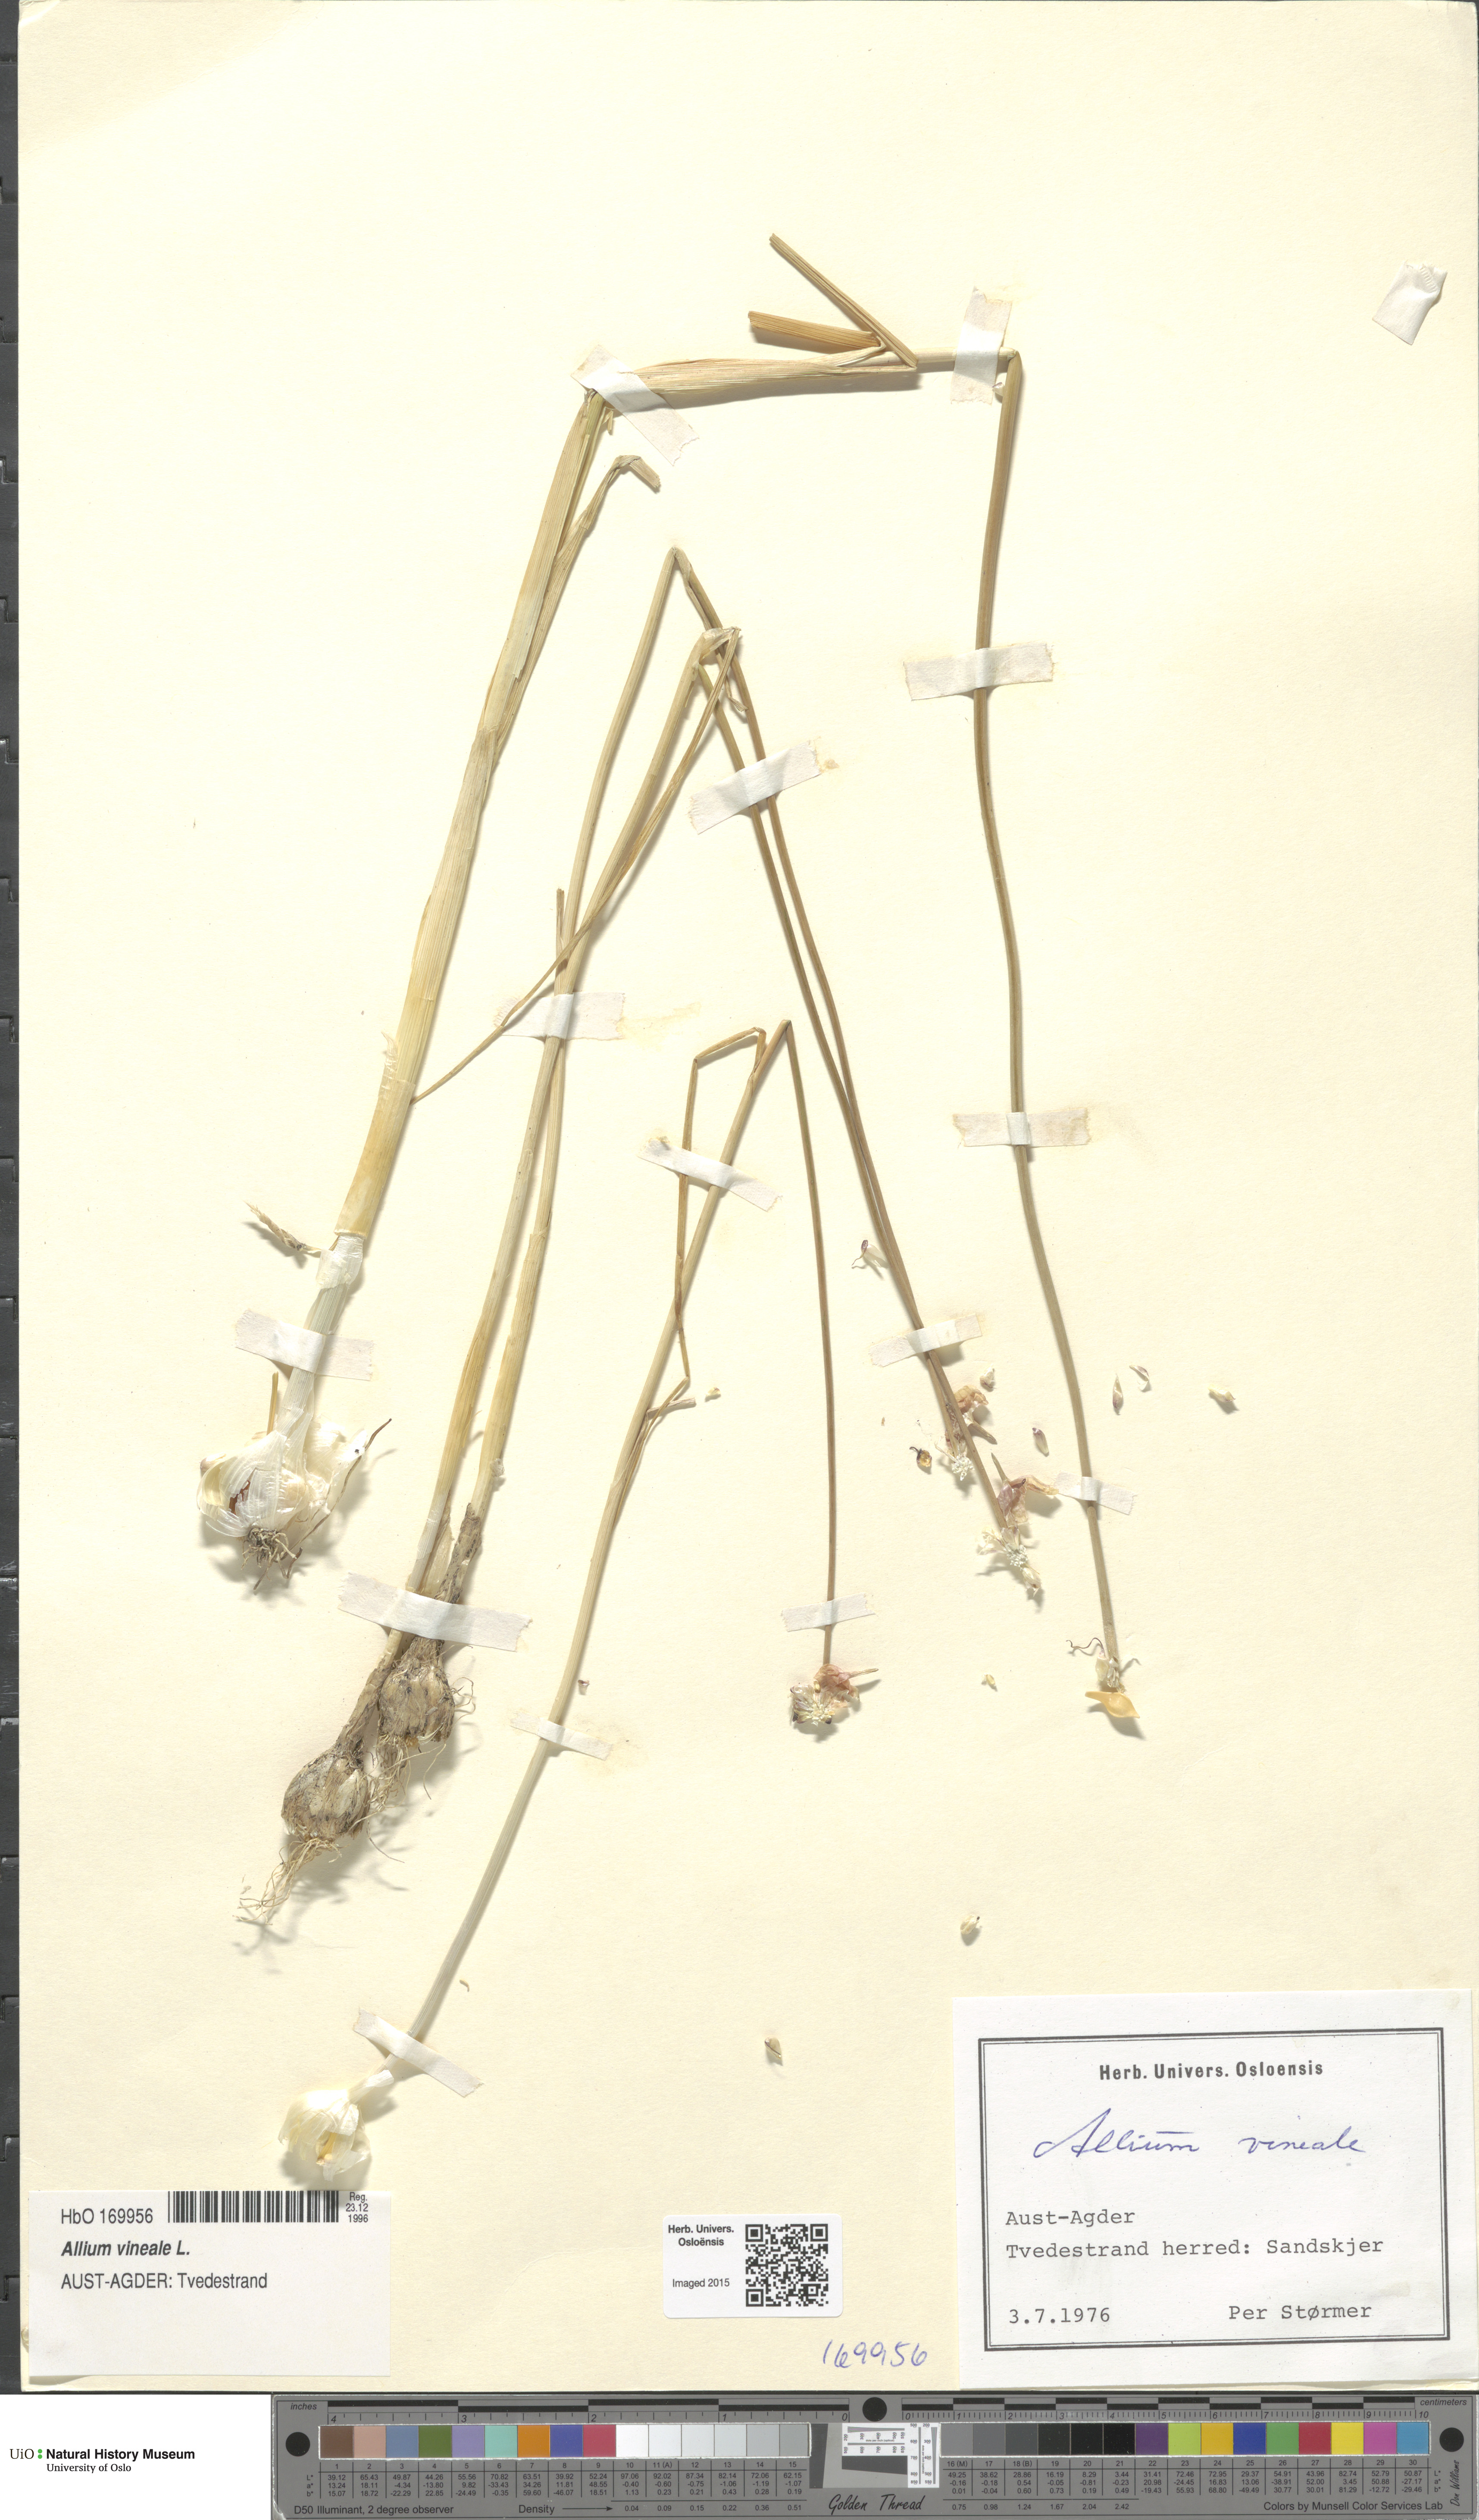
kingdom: Plantae
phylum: Tracheophyta
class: Liliopsida
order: Asparagales
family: Amaryllidaceae
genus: Allium
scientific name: Allium vineale
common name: Crow garlic
